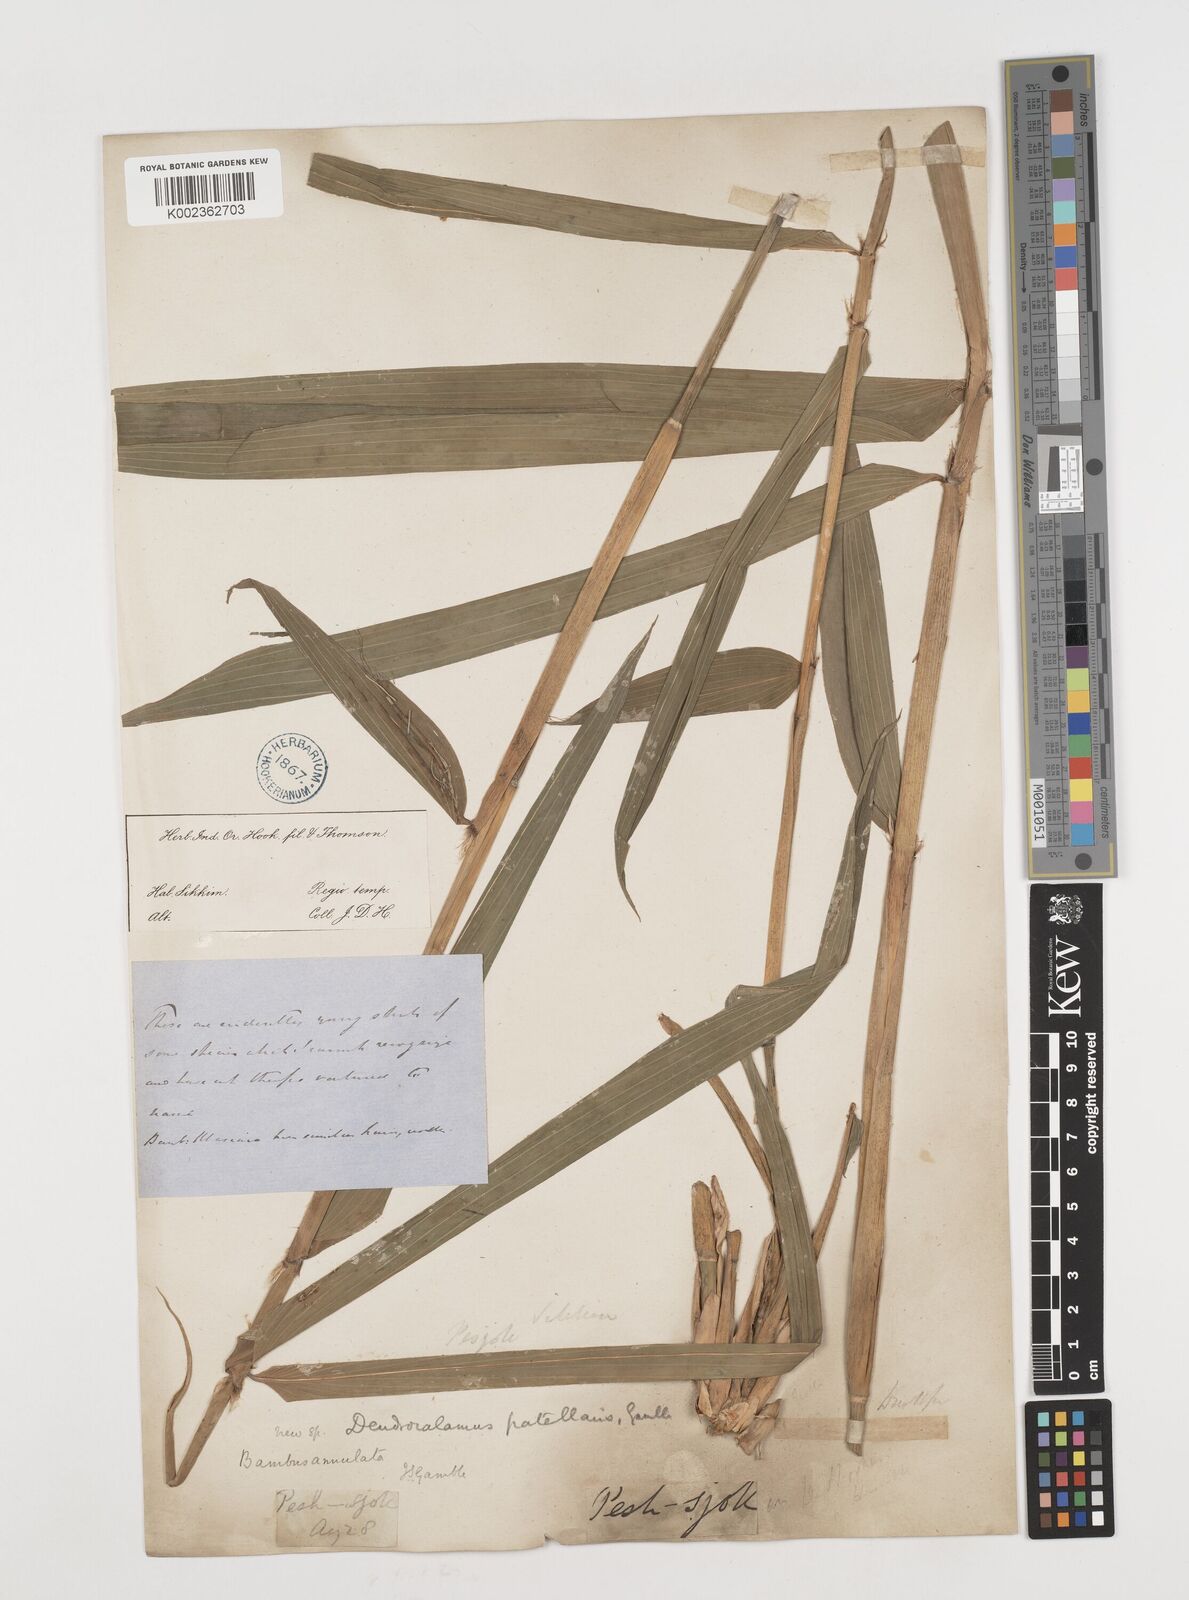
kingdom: Plantae
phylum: Tracheophyta
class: Liliopsida
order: Poales
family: Poaceae
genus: Ampelocalamus
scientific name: Ampelocalamus patellaris
